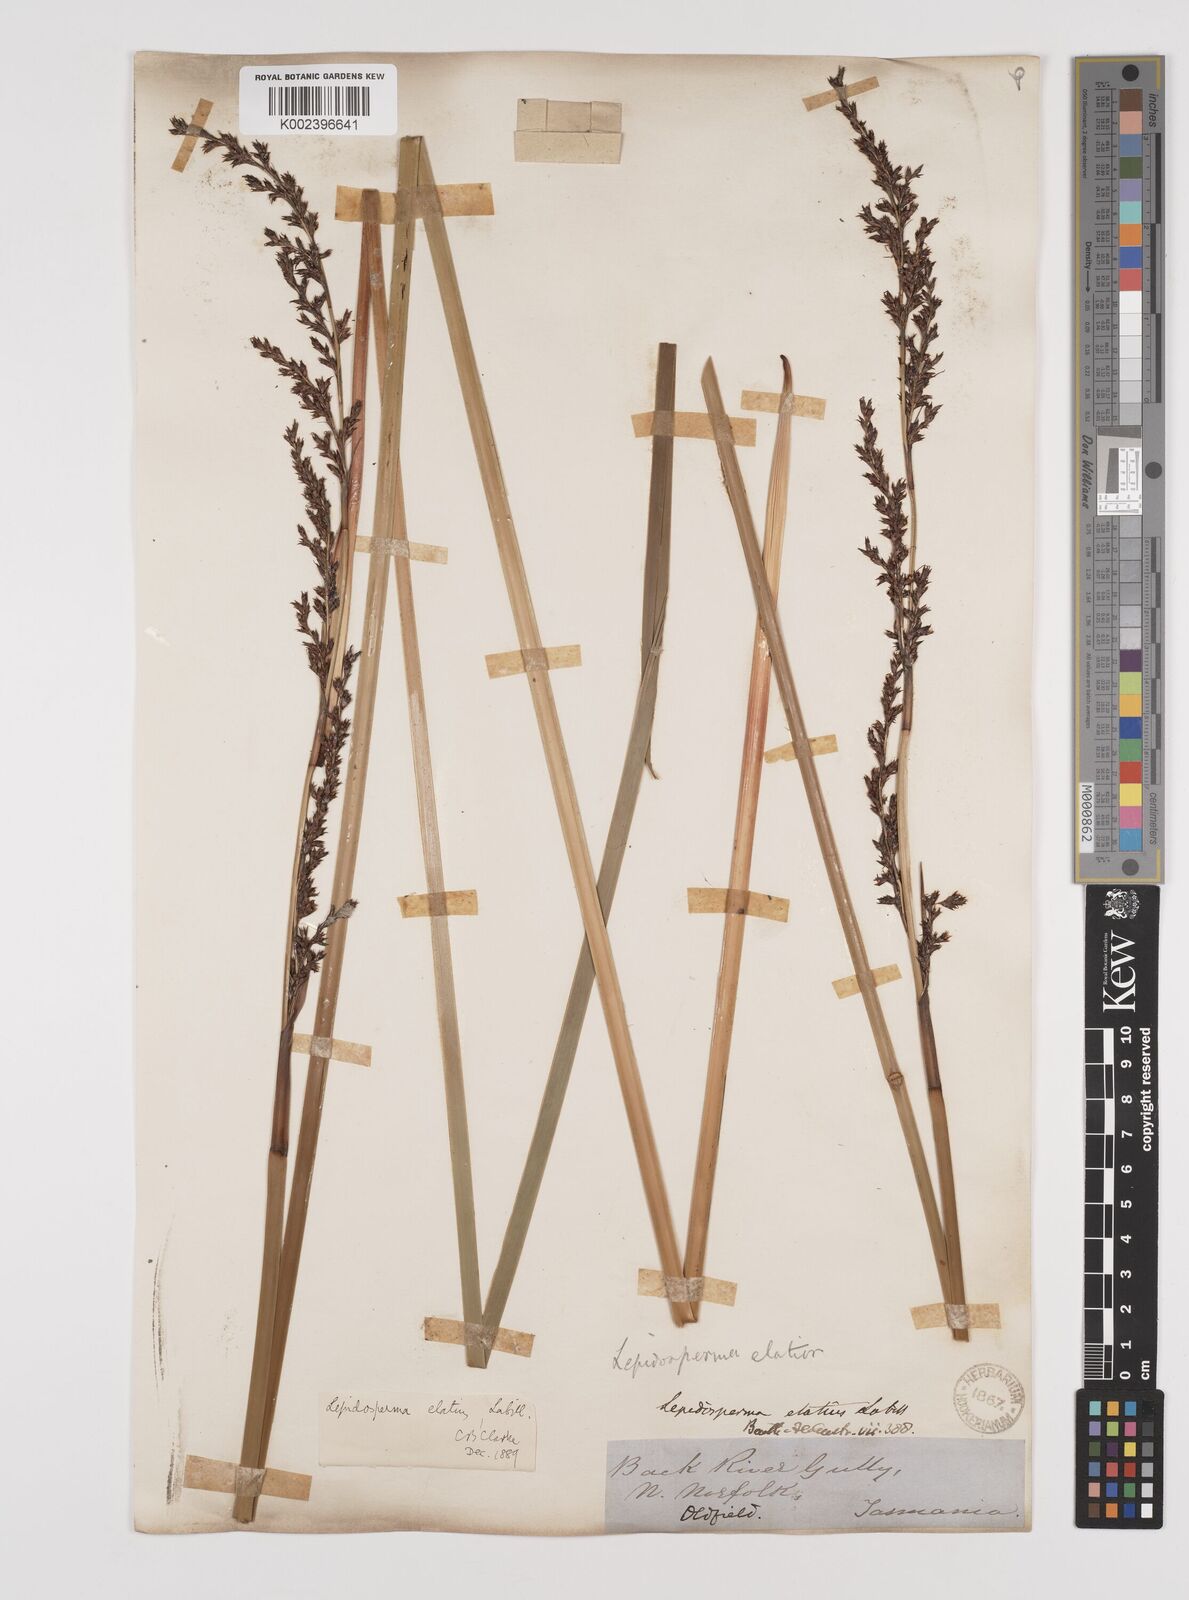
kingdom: Plantae
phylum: Tracheophyta
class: Liliopsida
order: Poales
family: Cyperaceae
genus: Lepidosperma
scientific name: Lepidosperma elatius
